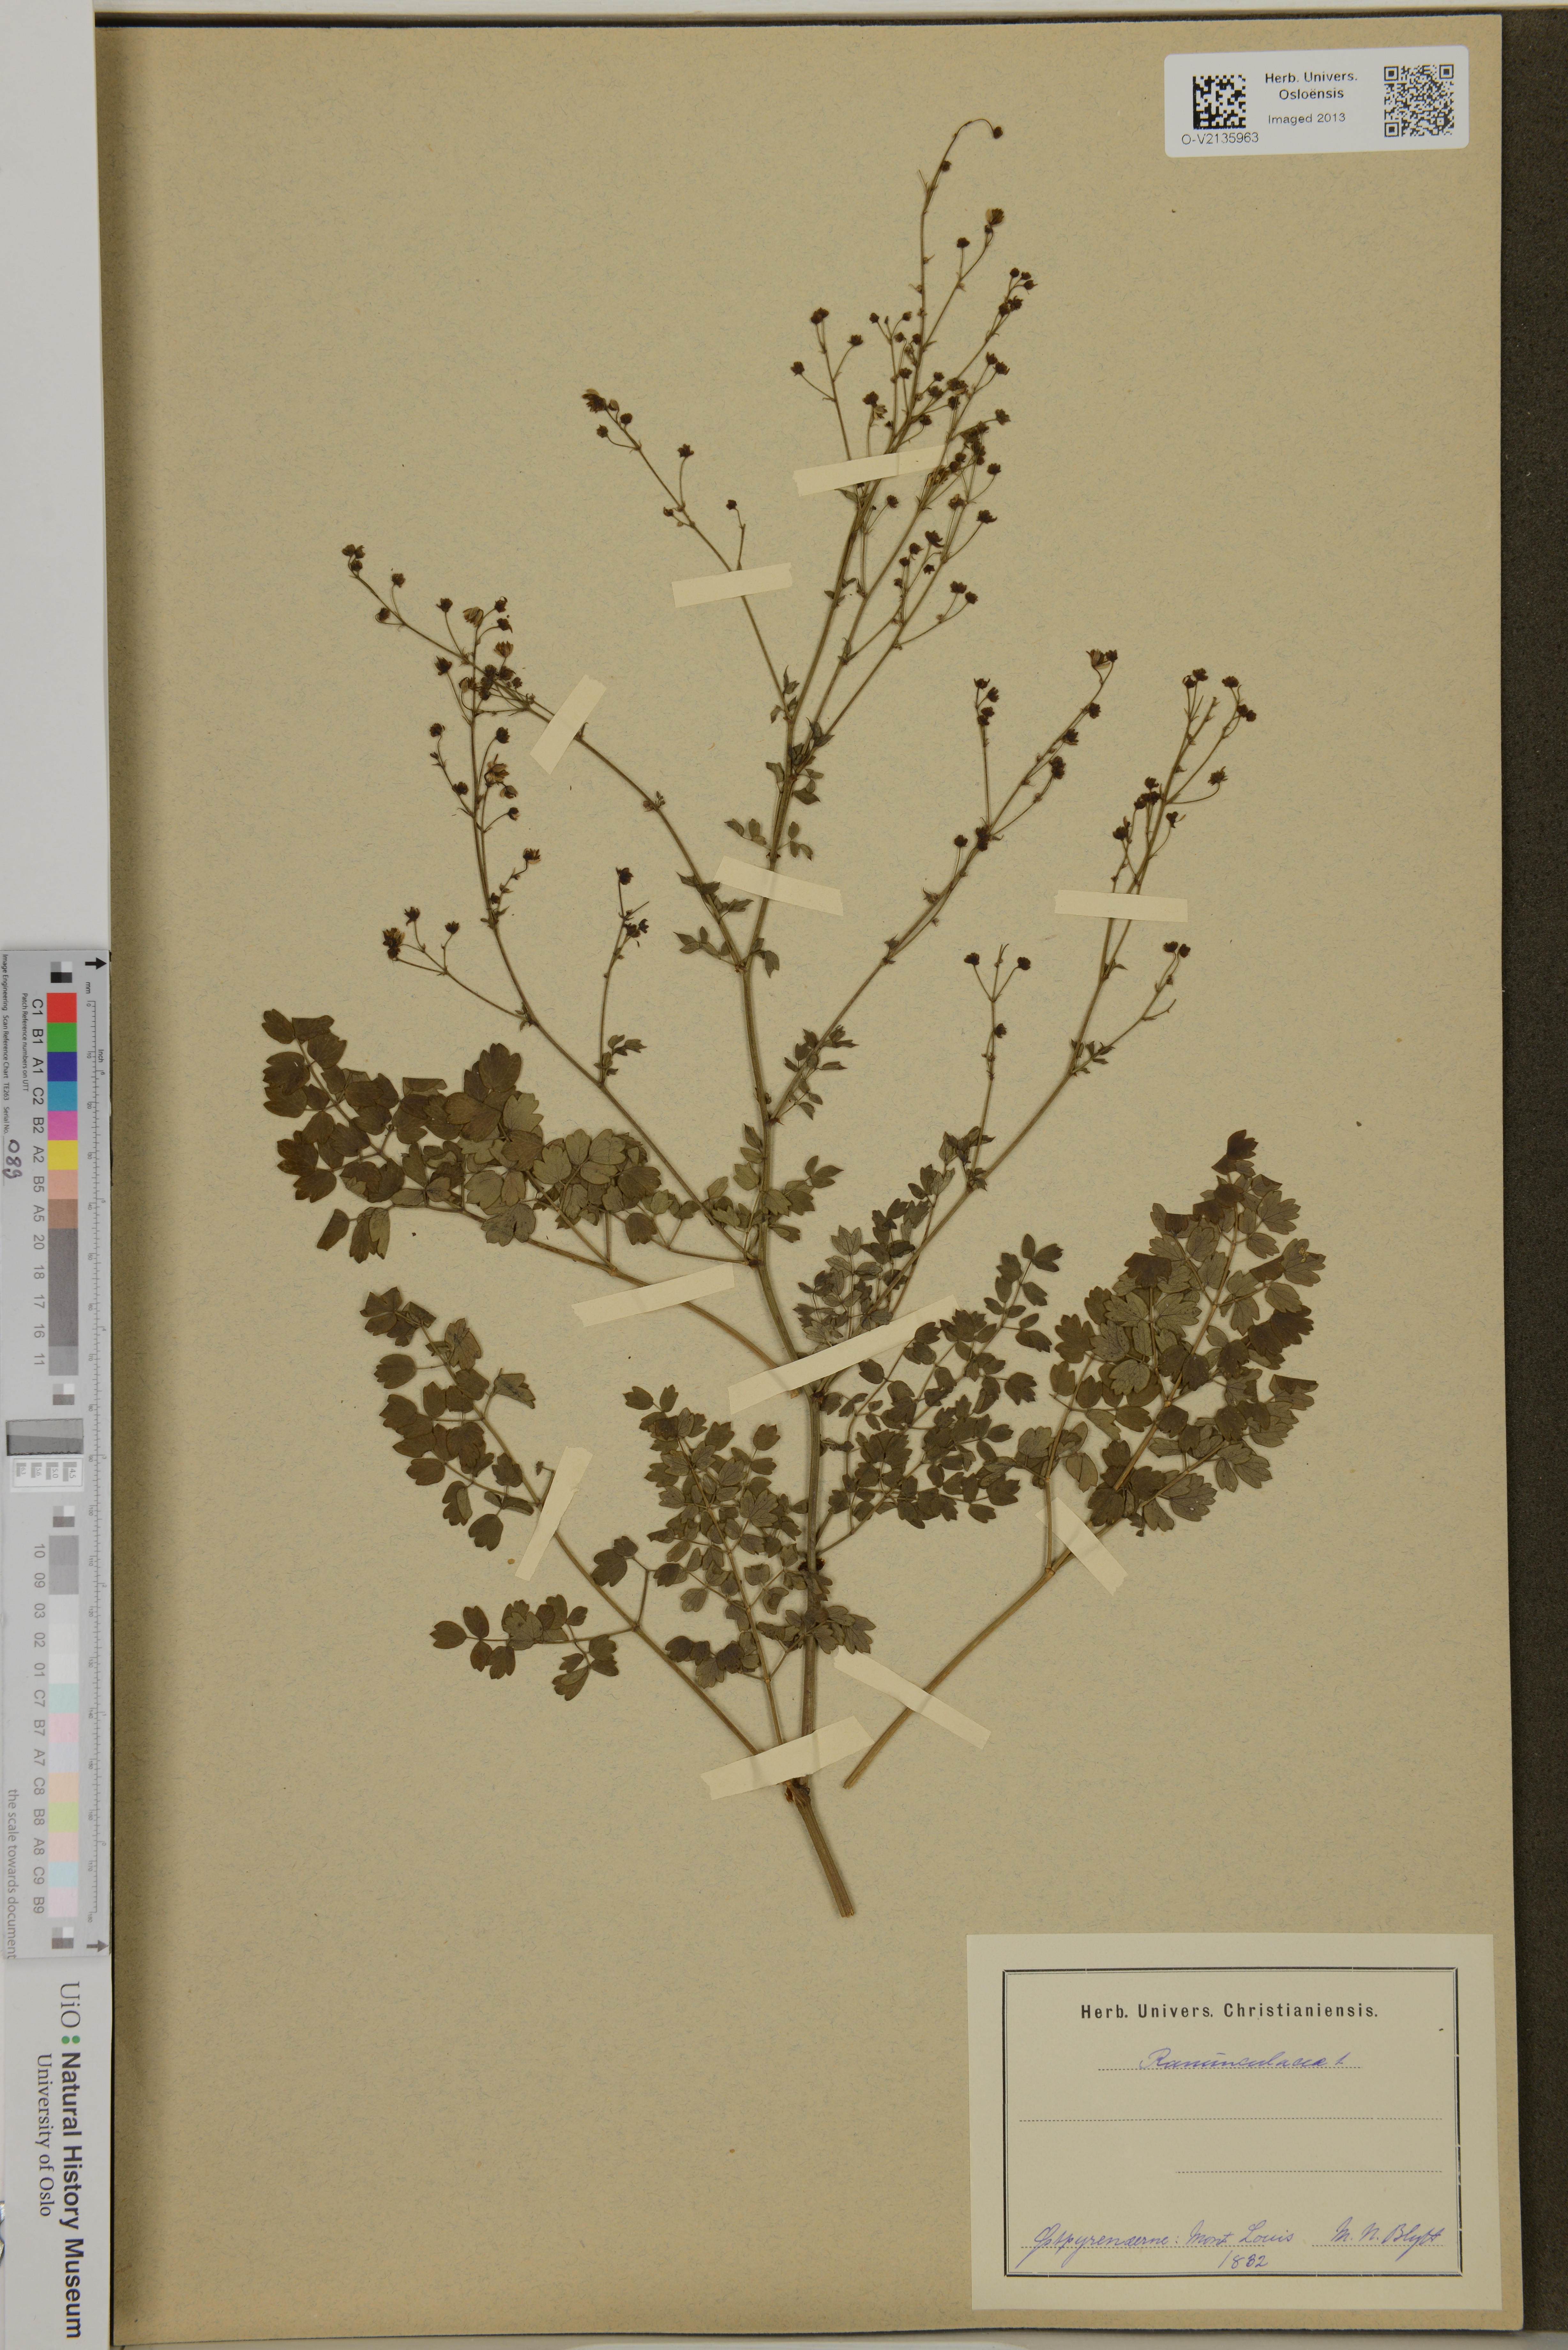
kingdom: Plantae
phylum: Tracheophyta
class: Magnoliopsida
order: Ranunculales
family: Ranunculaceae
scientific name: Ranunculaceae
